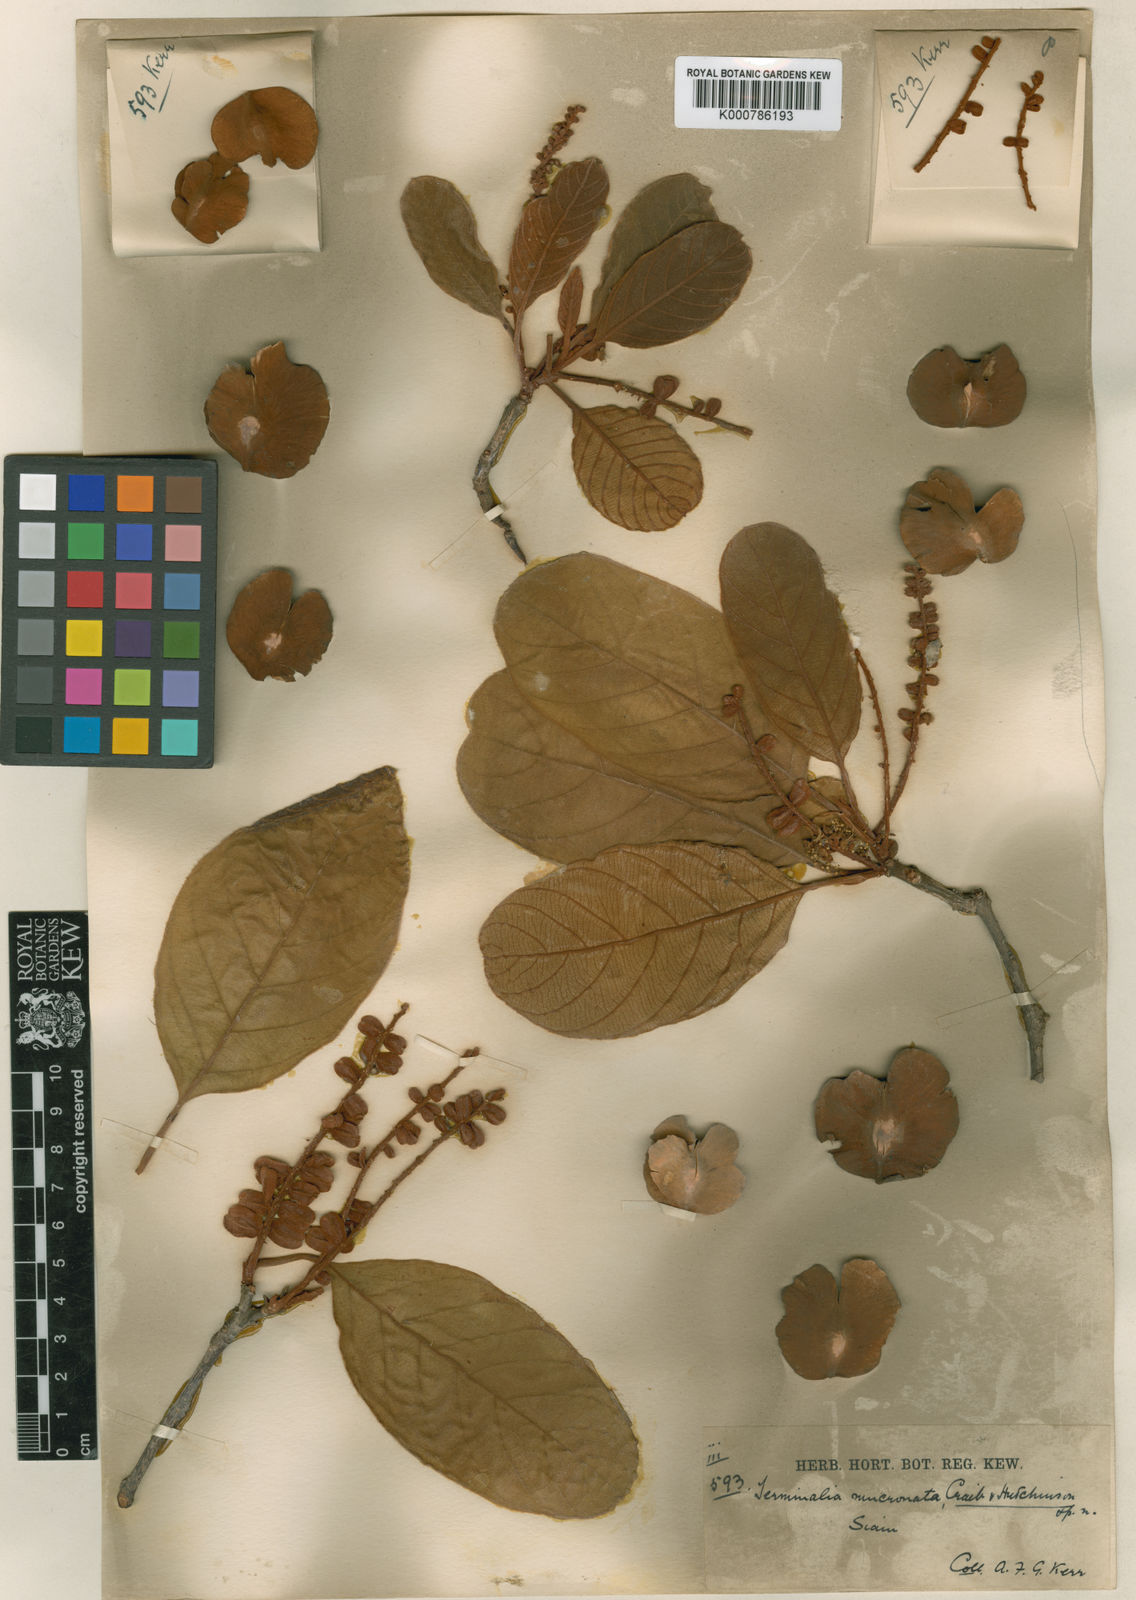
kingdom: Plantae
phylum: Tracheophyta
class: Magnoliopsida
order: Myrtales
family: Combretaceae
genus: Terminalia
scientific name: Terminalia corticosa
